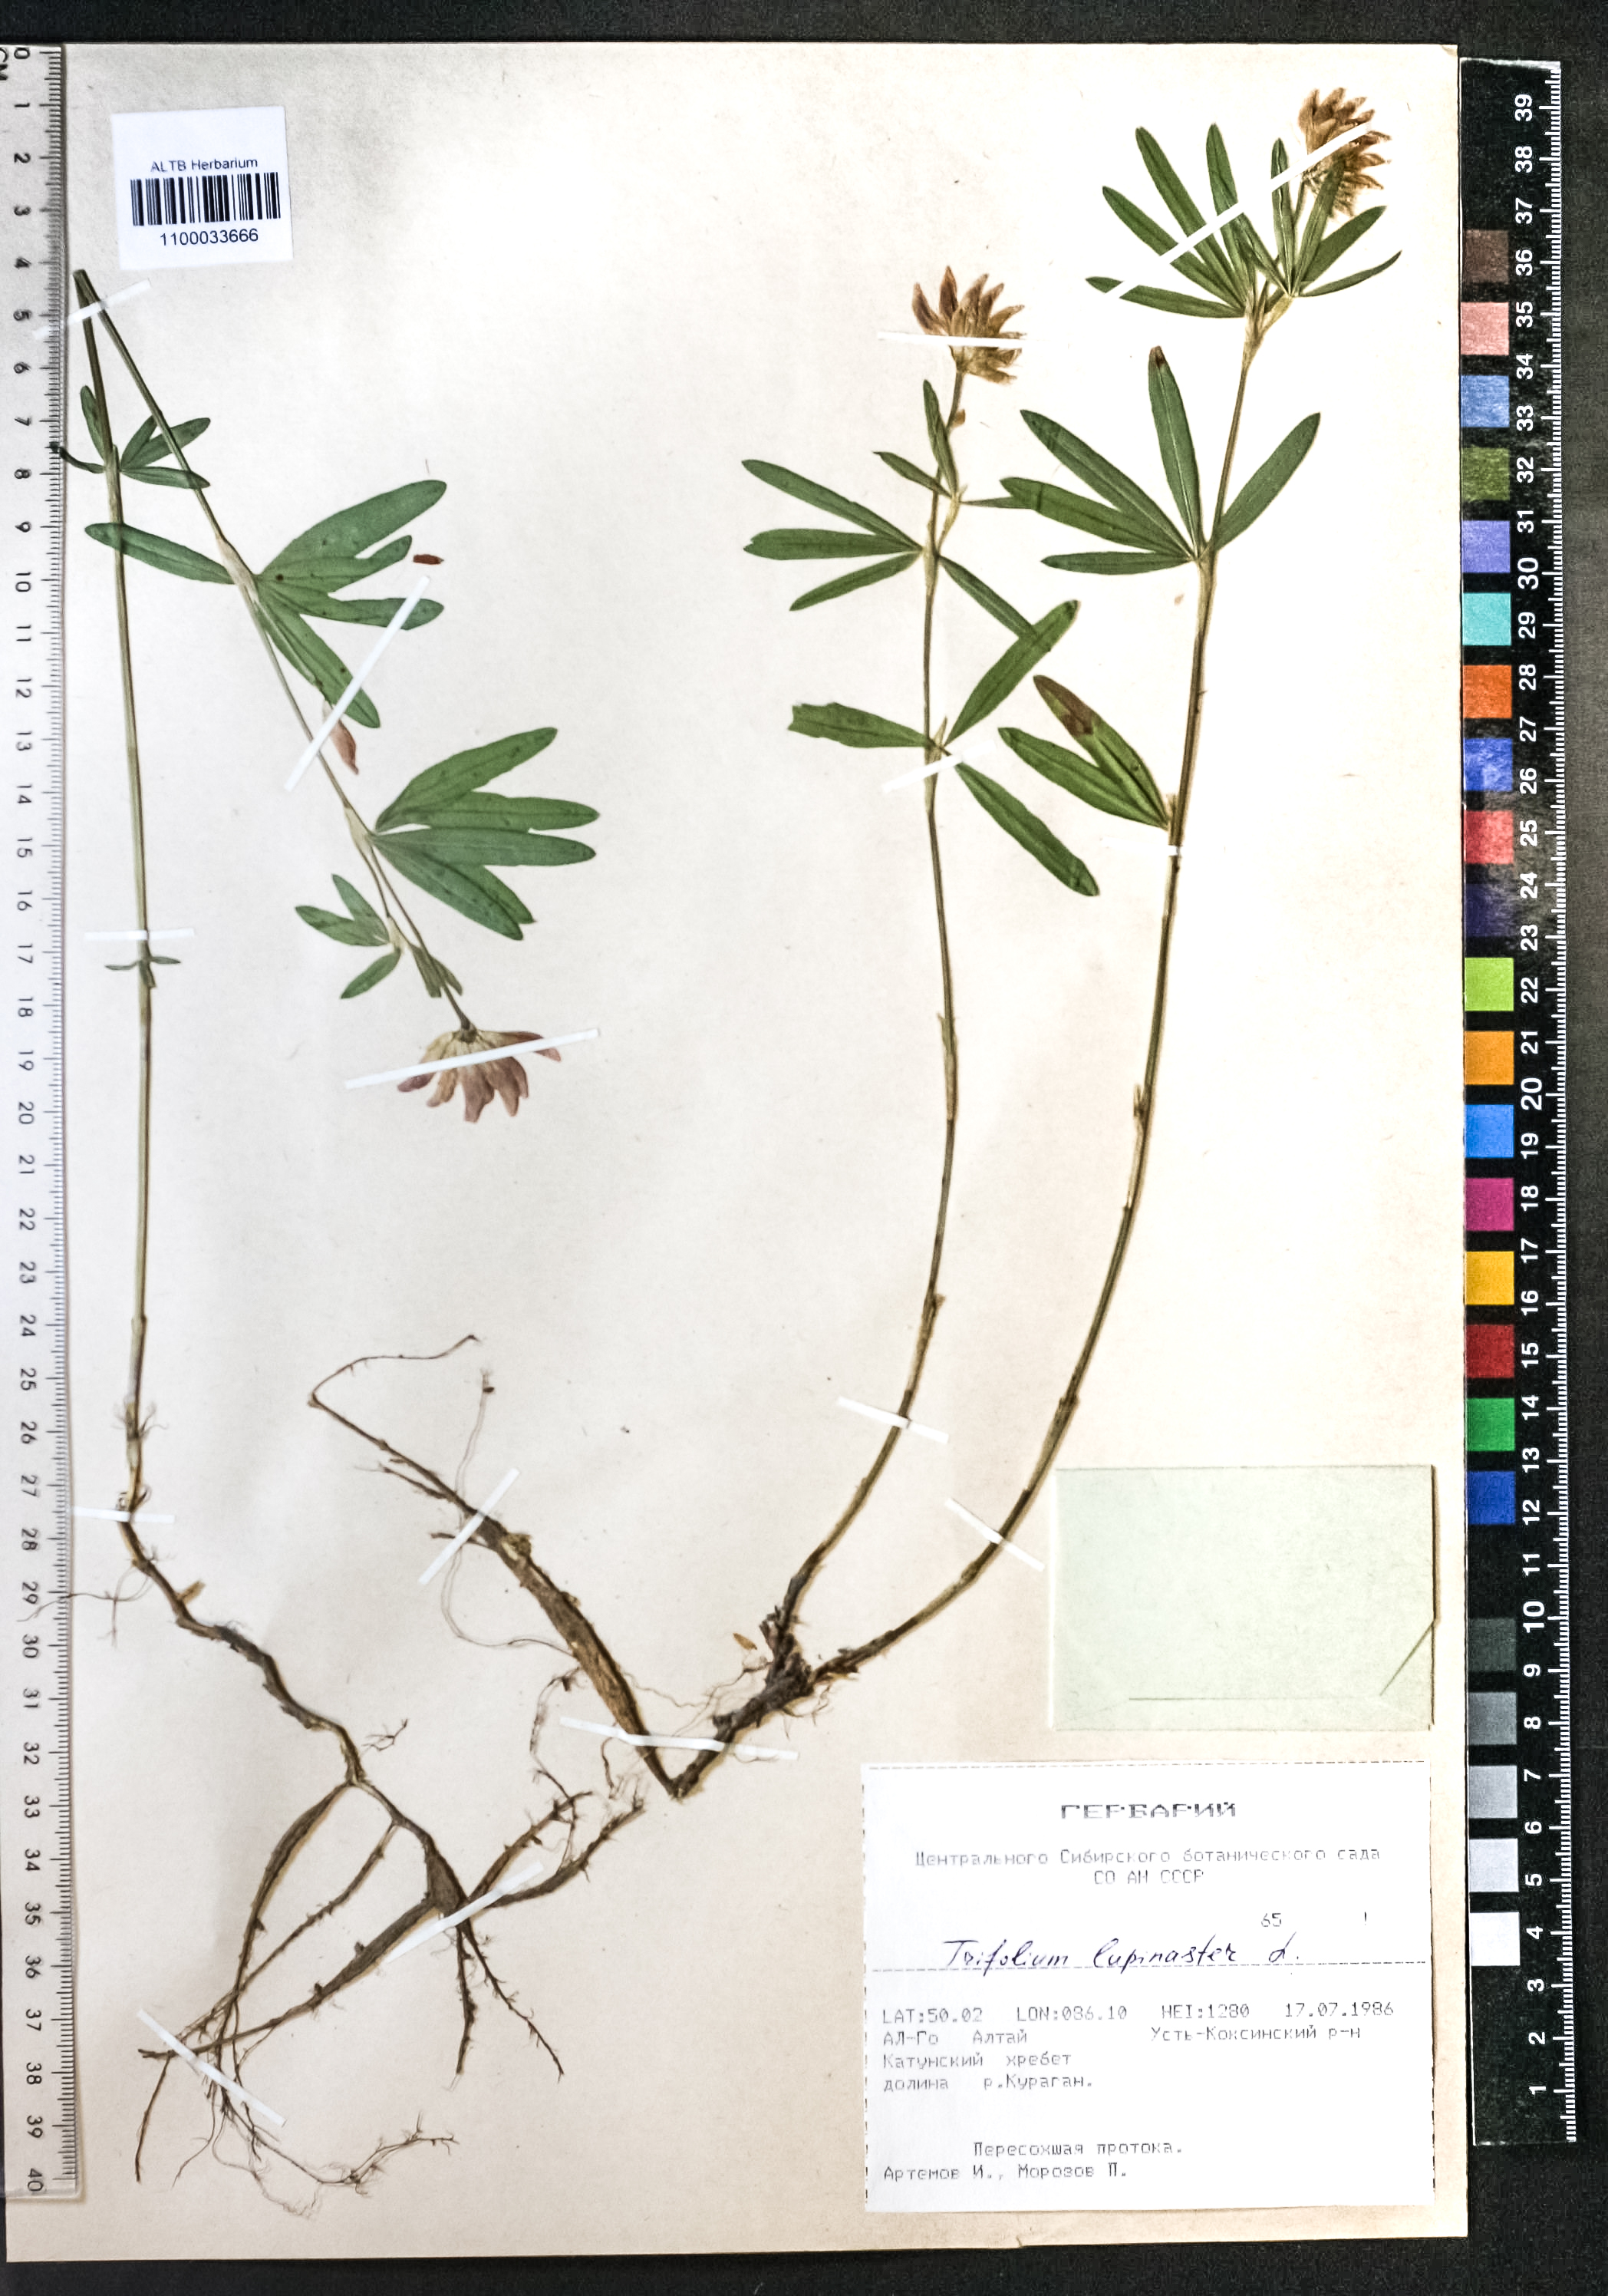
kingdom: Plantae
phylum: Tracheophyta
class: Magnoliopsida
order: Fabales
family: Fabaceae
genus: Trifolium
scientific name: Trifolium lupinaster
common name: Lupine clover
